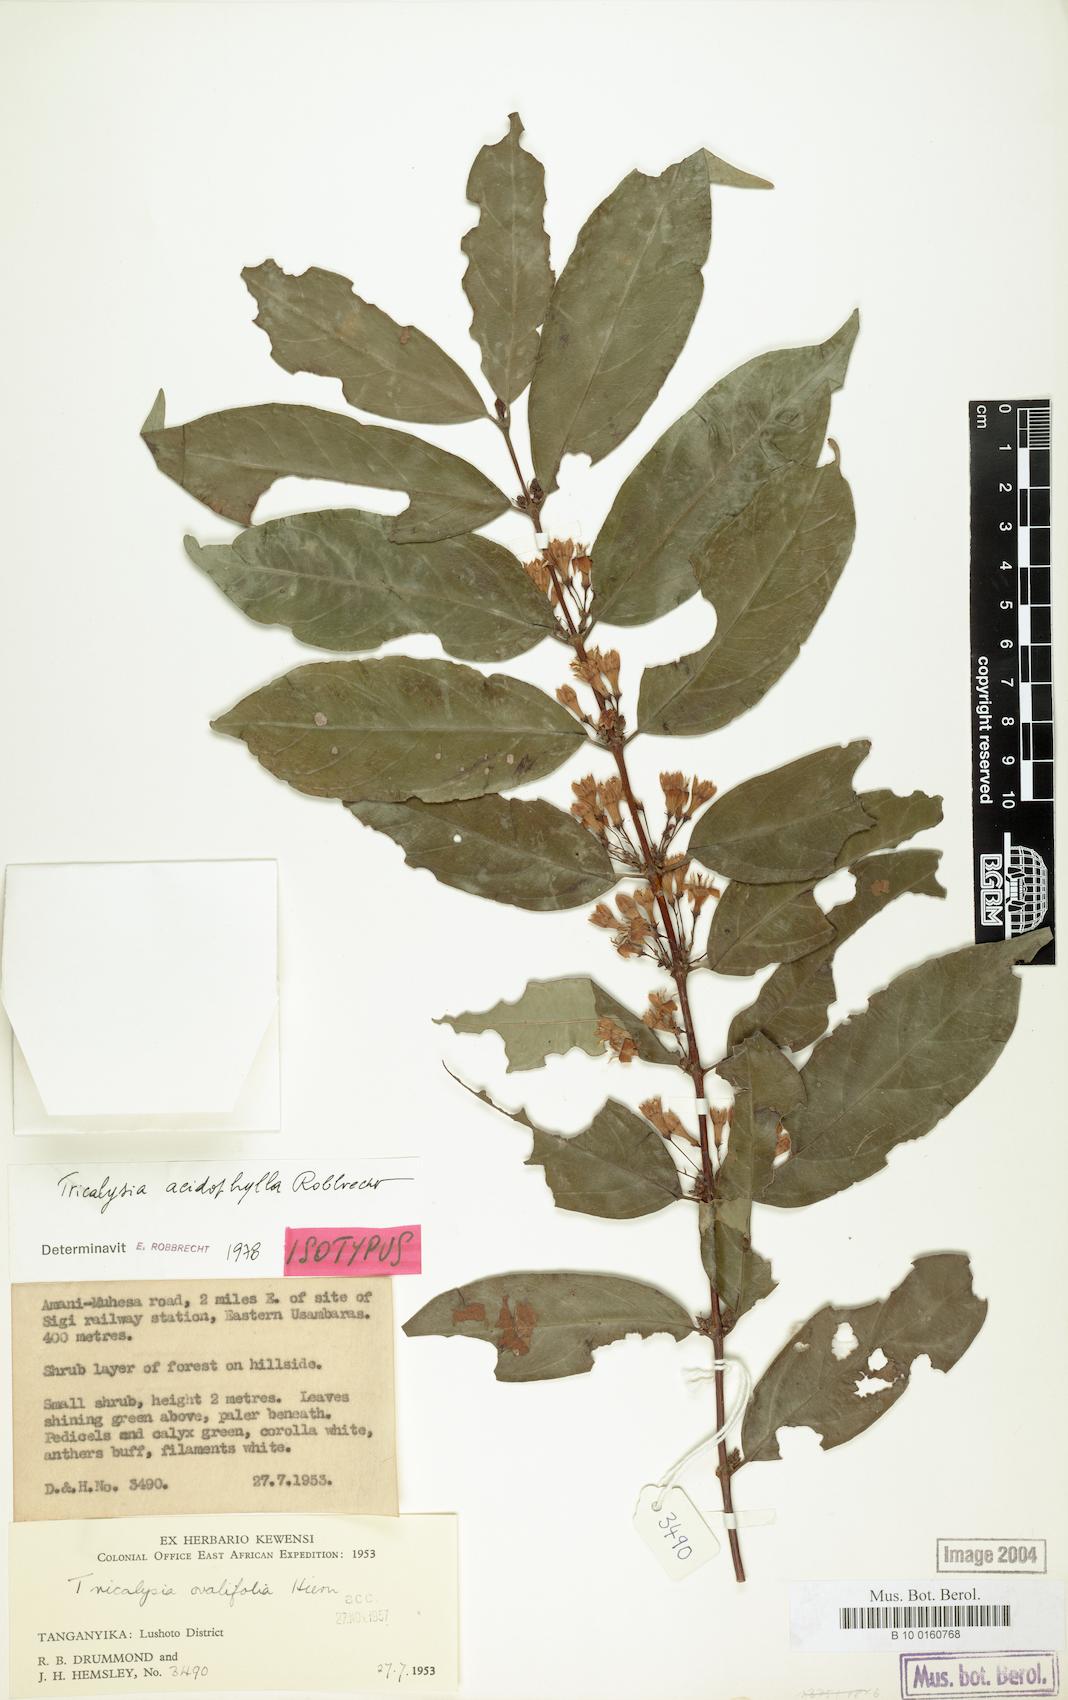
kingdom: Plantae
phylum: Tracheophyta
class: Magnoliopsida
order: Gentianales
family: Rubiaceae
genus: Empogona
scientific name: Empogona acidophylla
